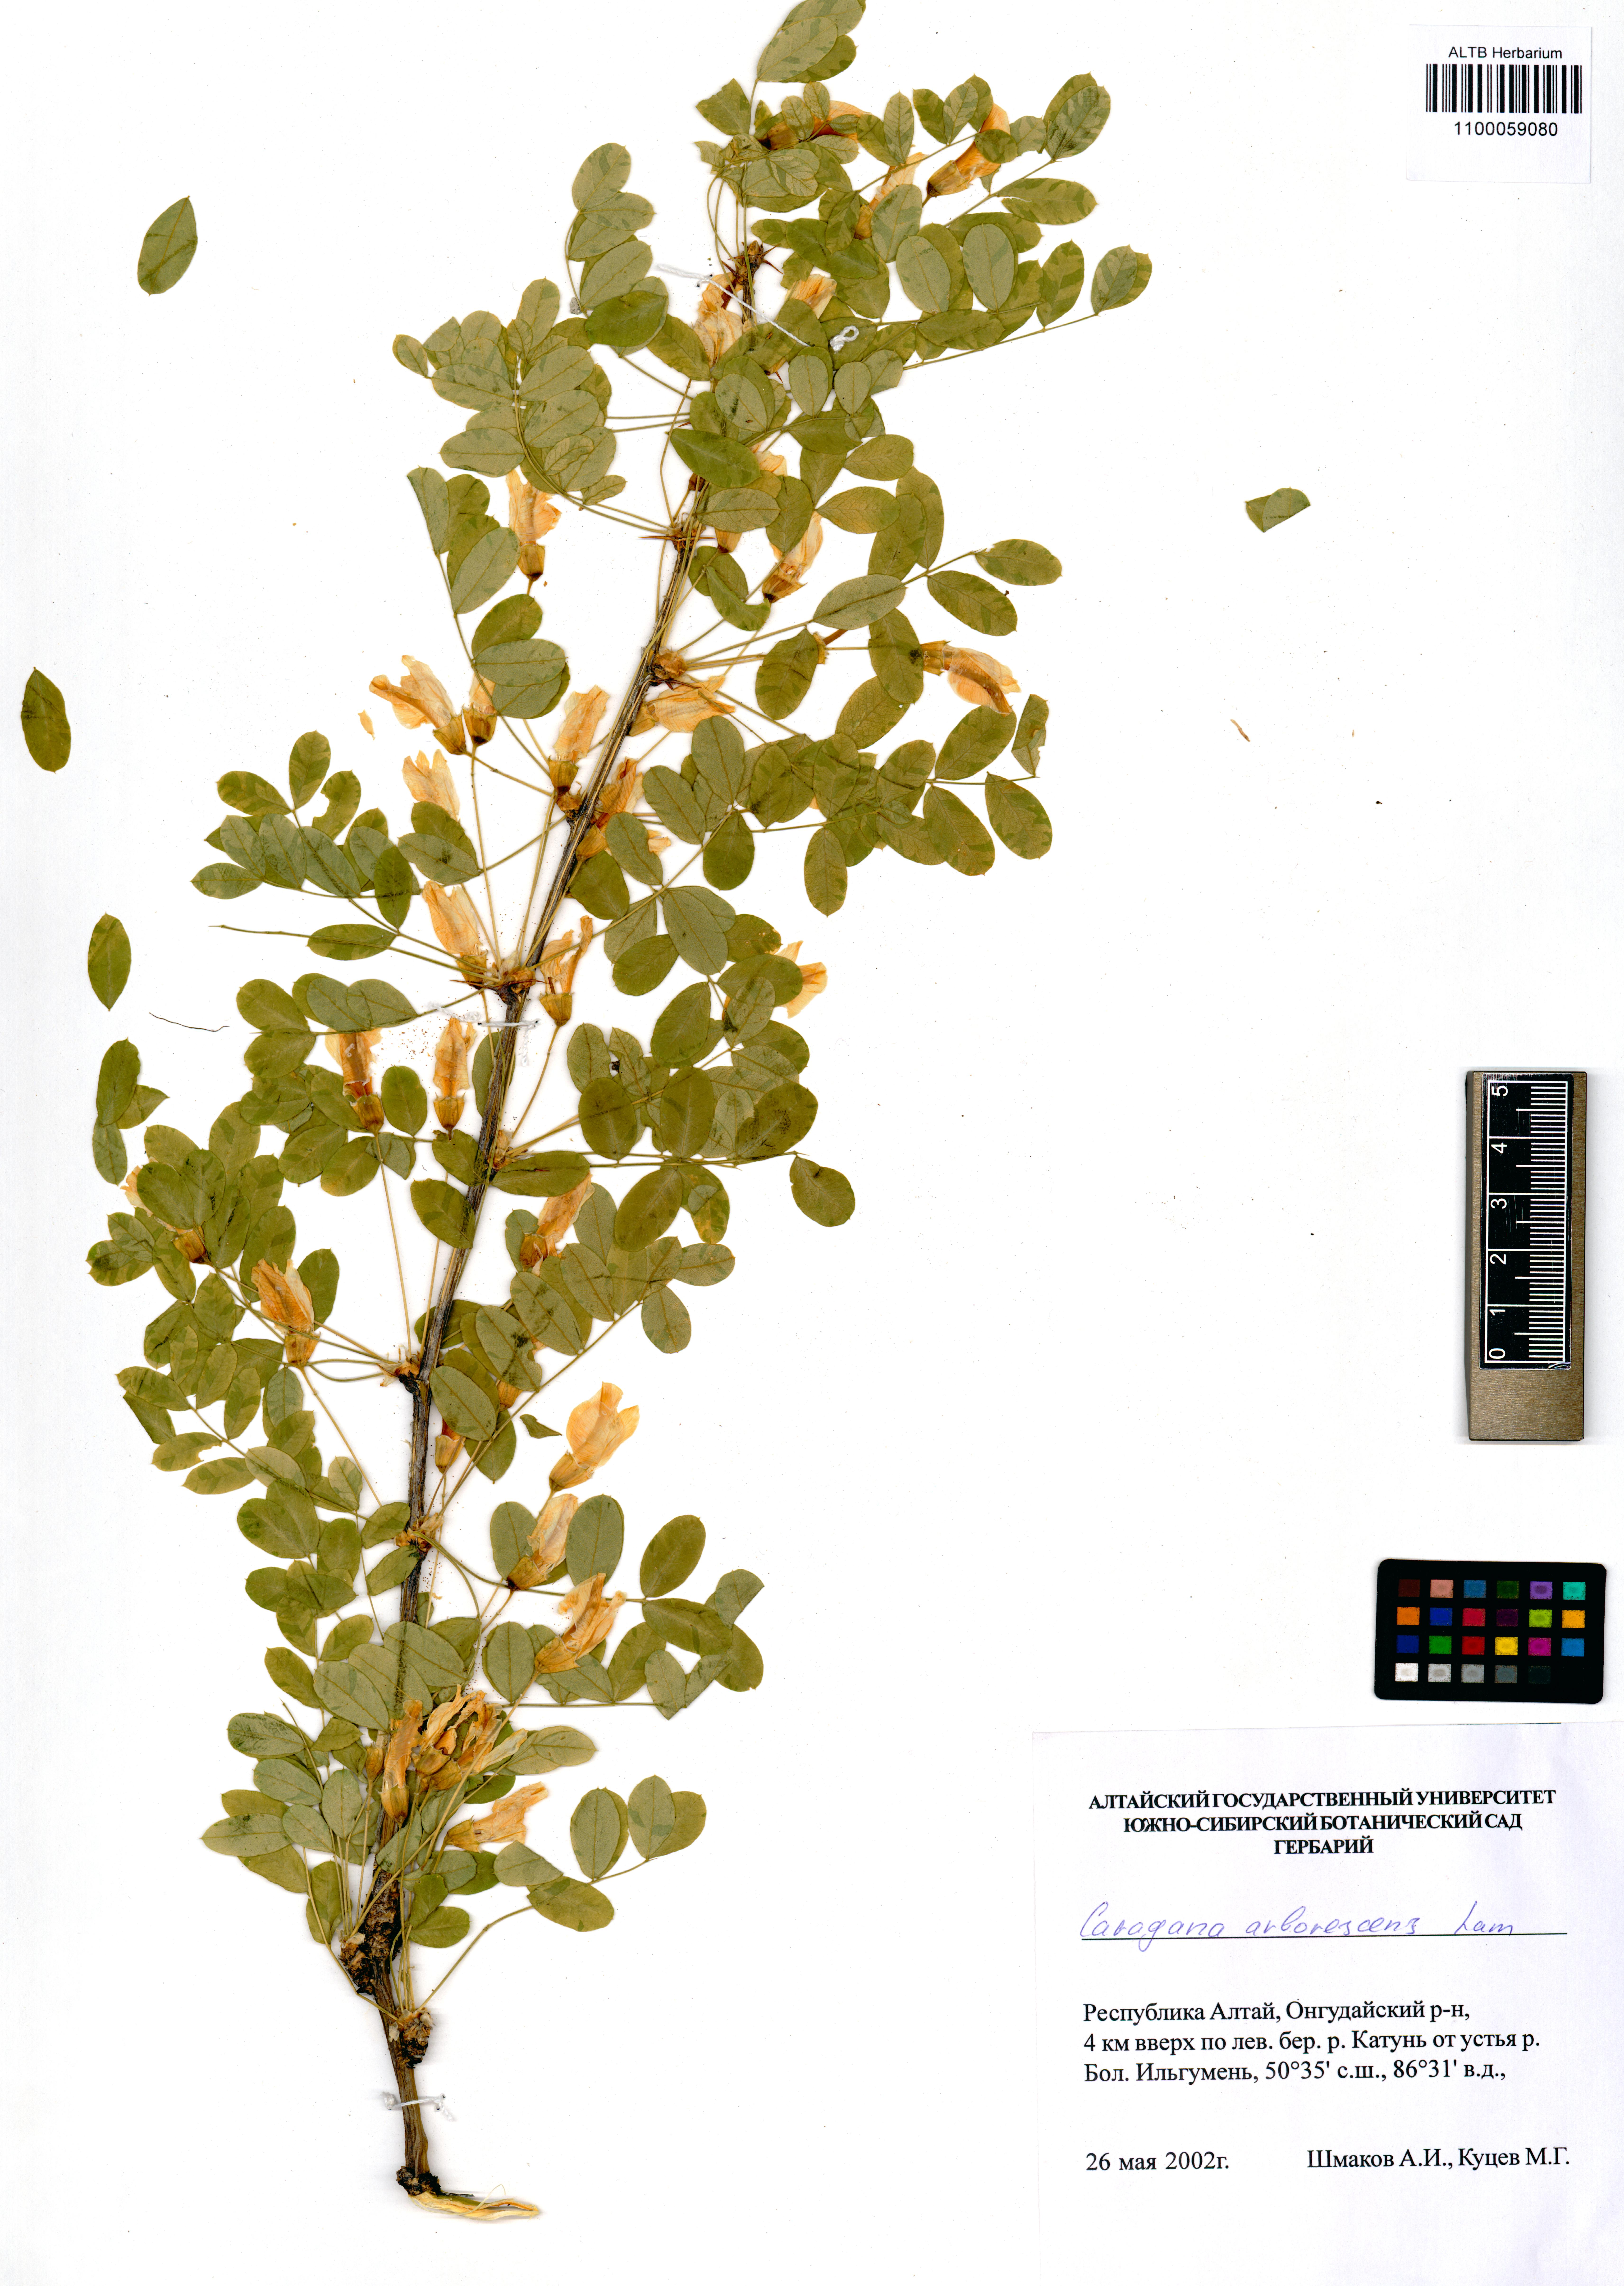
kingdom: Plantae
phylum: Tracheophyta
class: Magnoliopsida
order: Fabales
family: Fabaceae
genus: Caragana
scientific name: Caragana arborescens
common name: Siberian peashrub
